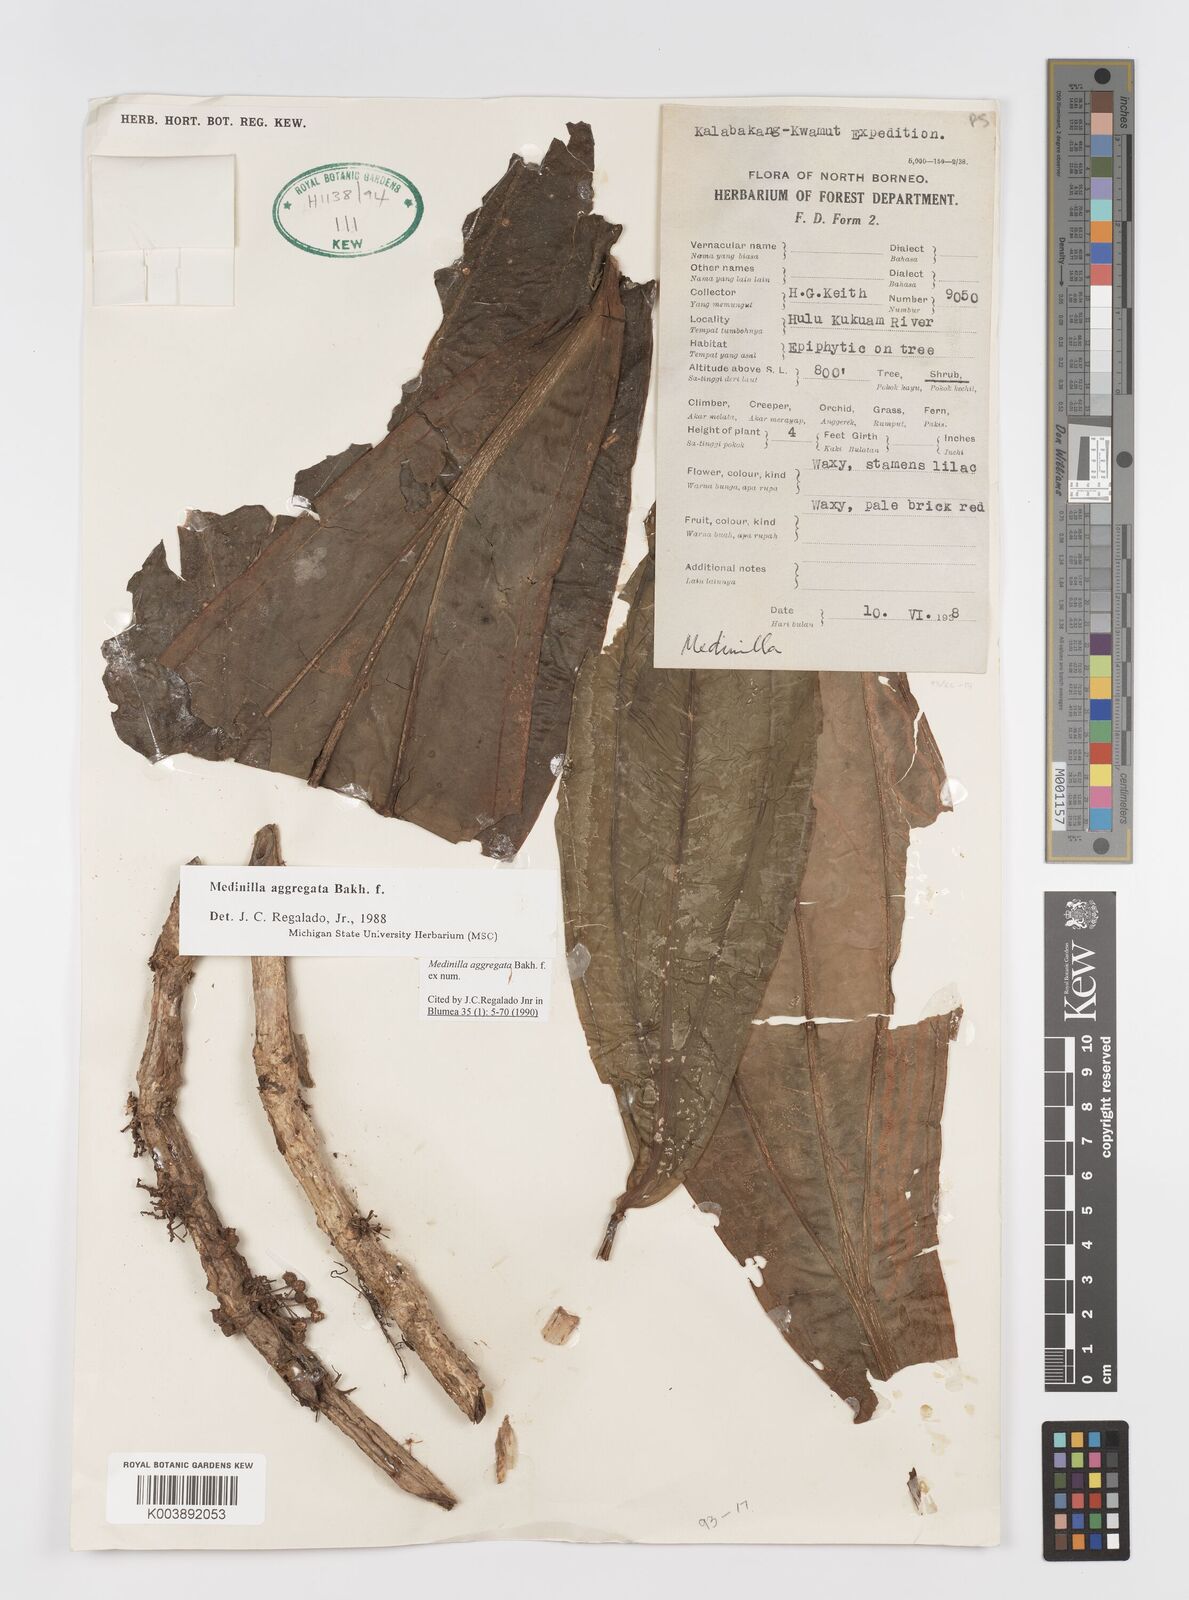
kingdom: Plantae
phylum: Tracheophyta
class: Magnoliopsida
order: Myrtales
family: Melastomataceae
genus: Medinilla
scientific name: Medinilla aggregata
